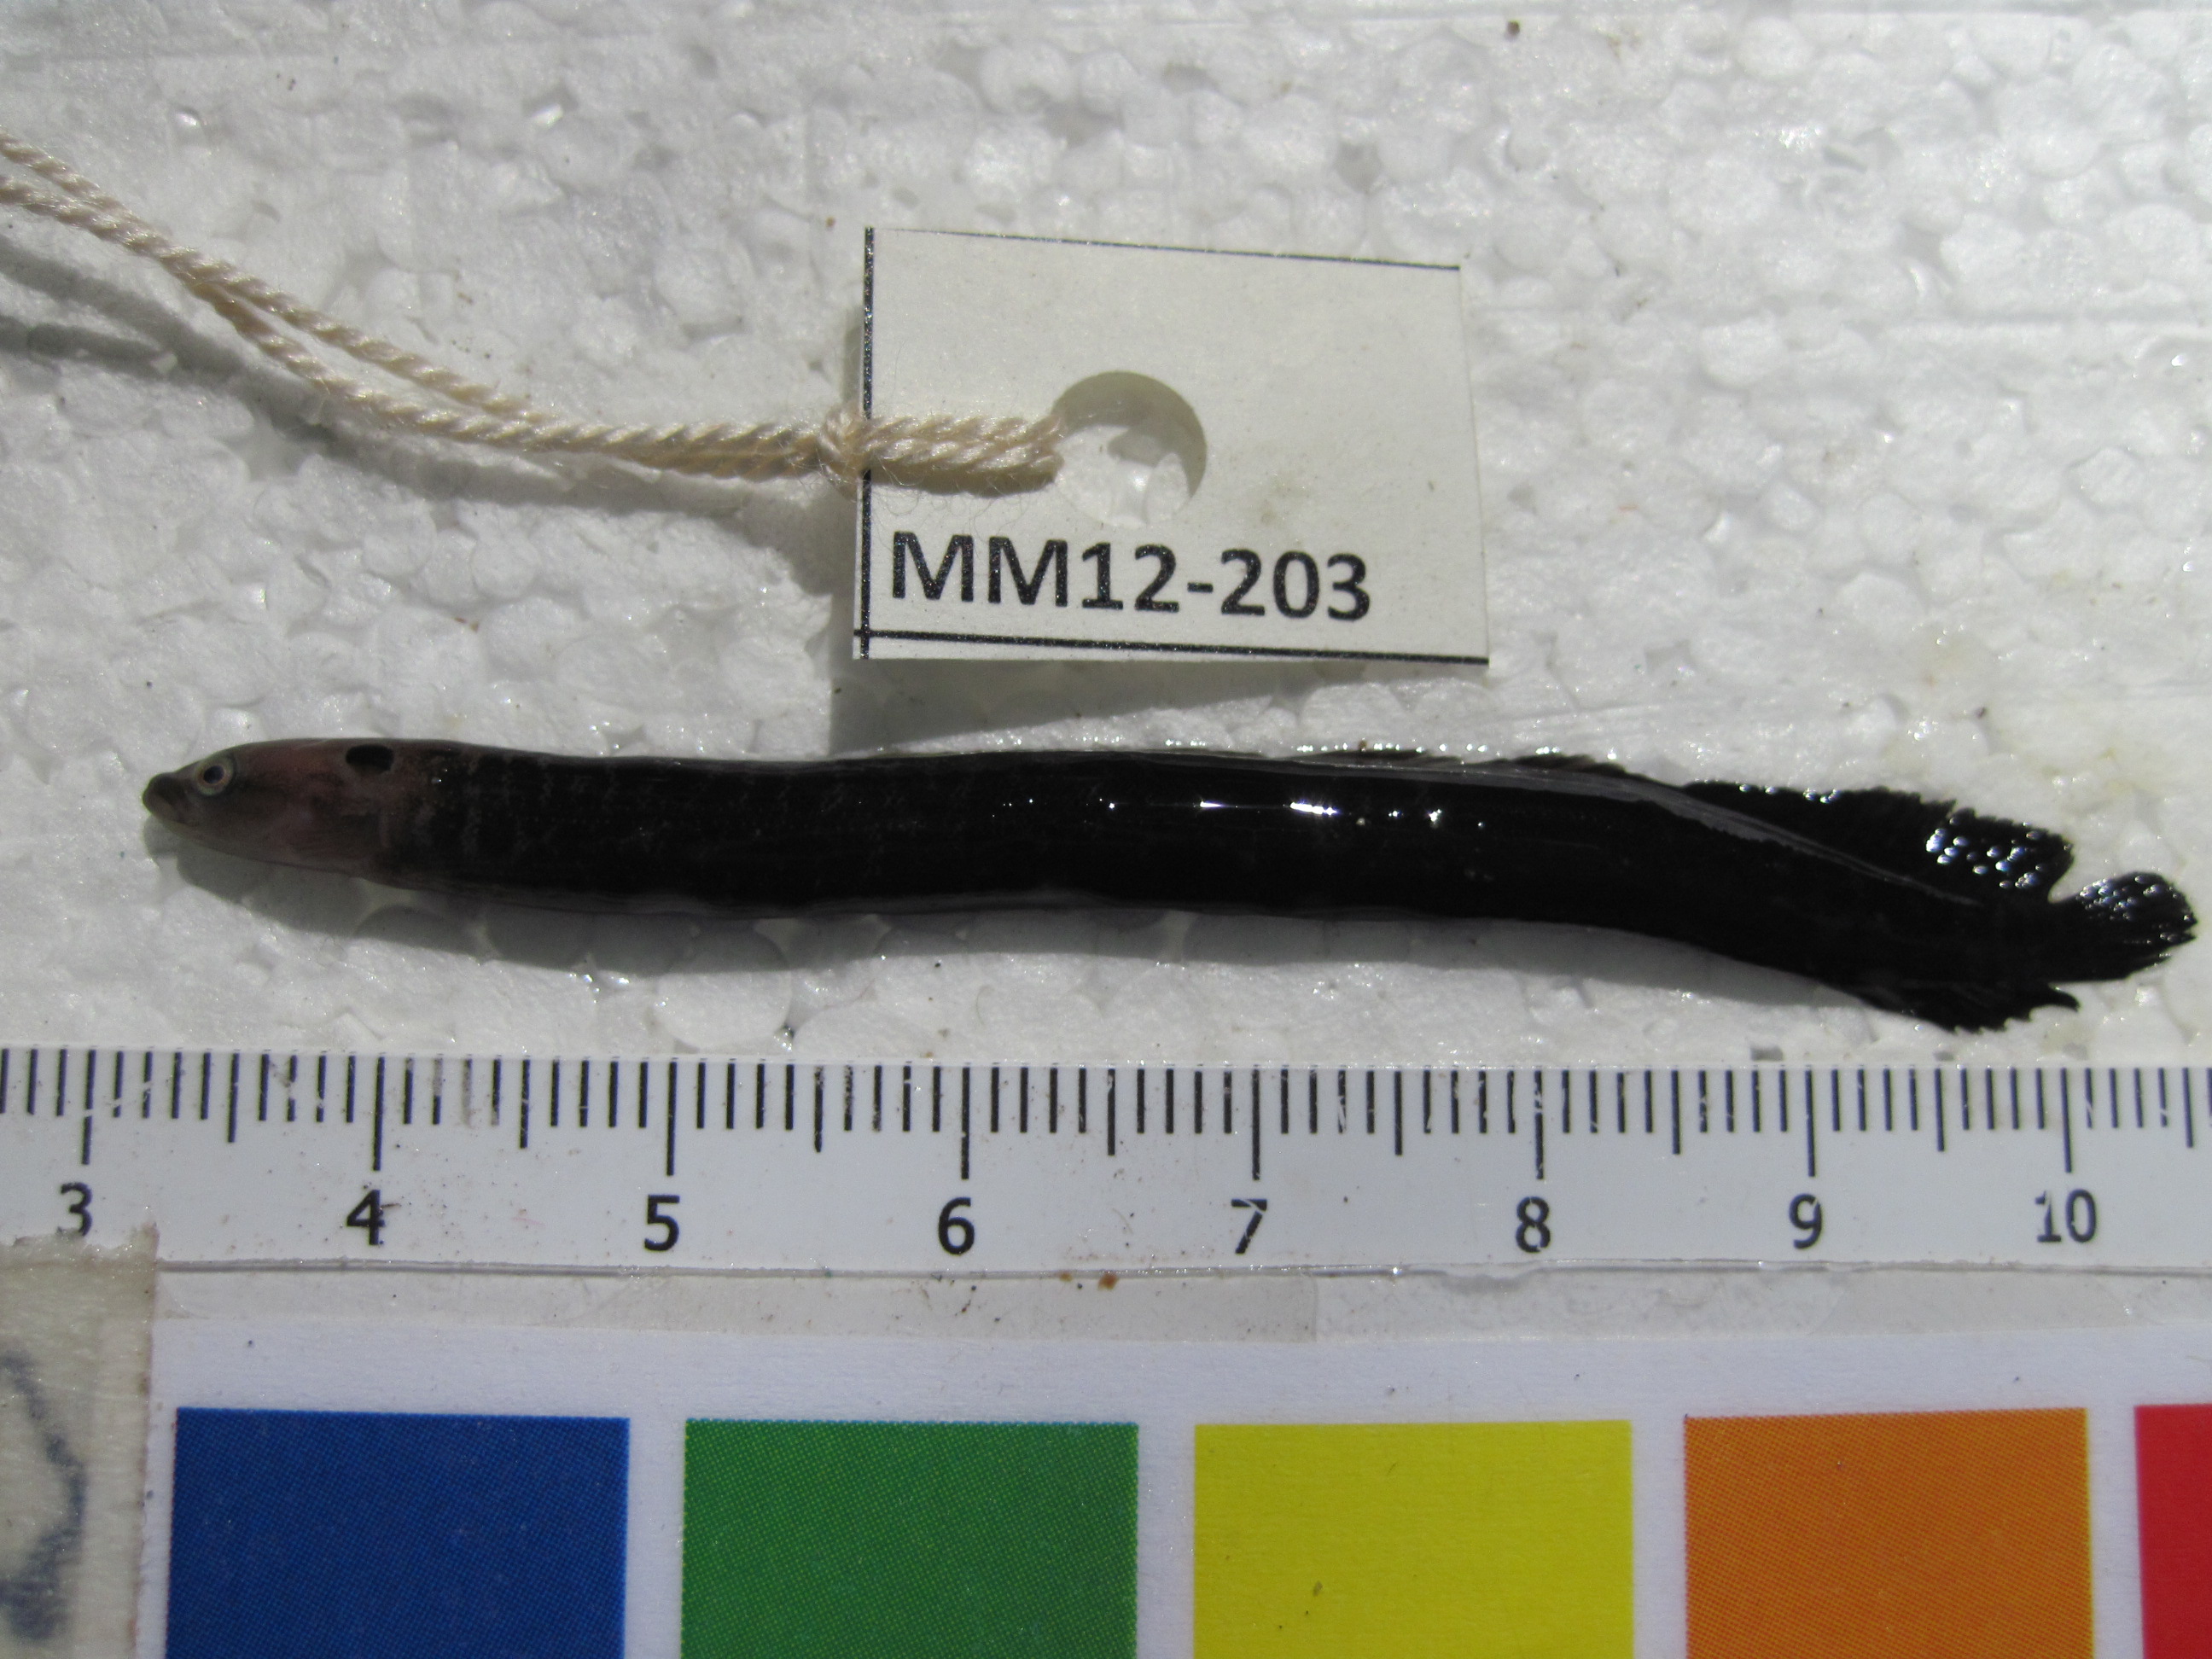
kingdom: Animalia
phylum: Chordata
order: Perciformes
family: Pseudochromidae
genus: Halidesmus
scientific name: Halidesmus scapularis
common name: Snakelet
